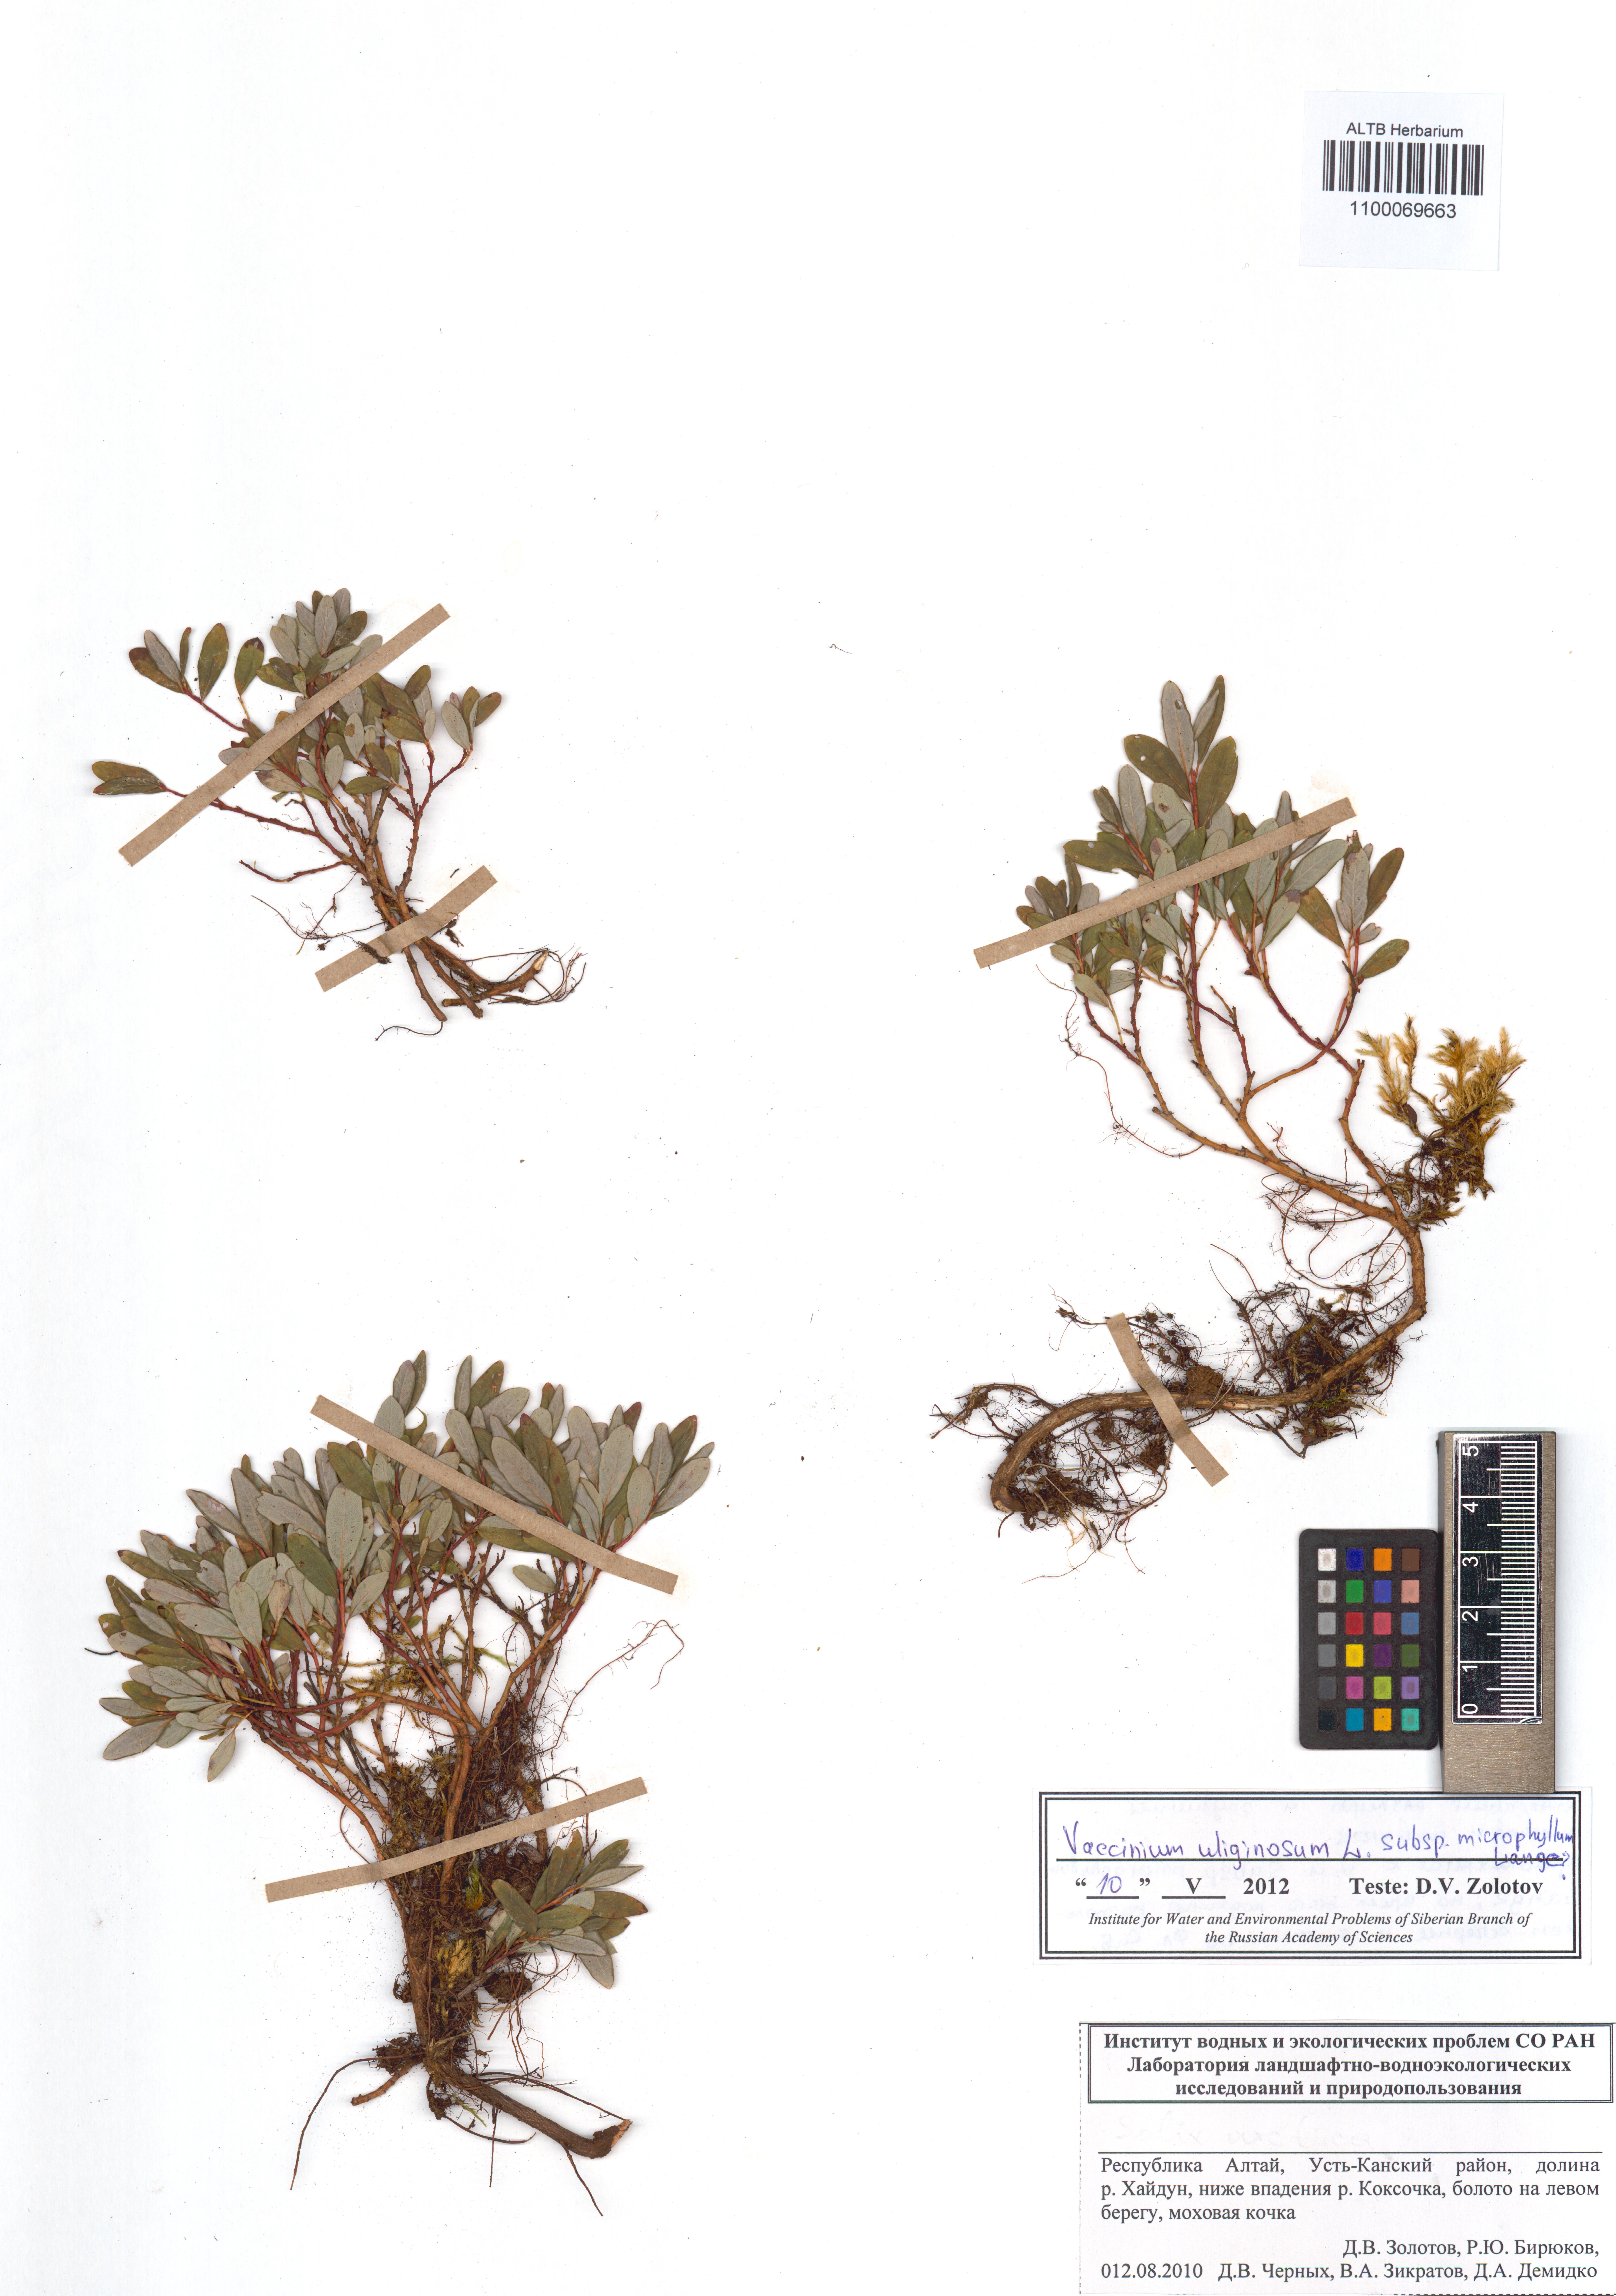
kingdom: Plantae
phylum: Tracheophyta
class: Magnoliopsida
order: Ericales
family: Ericaceae
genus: Vaccinium
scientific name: Vaccinium uliginosum
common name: Bog bilberry
